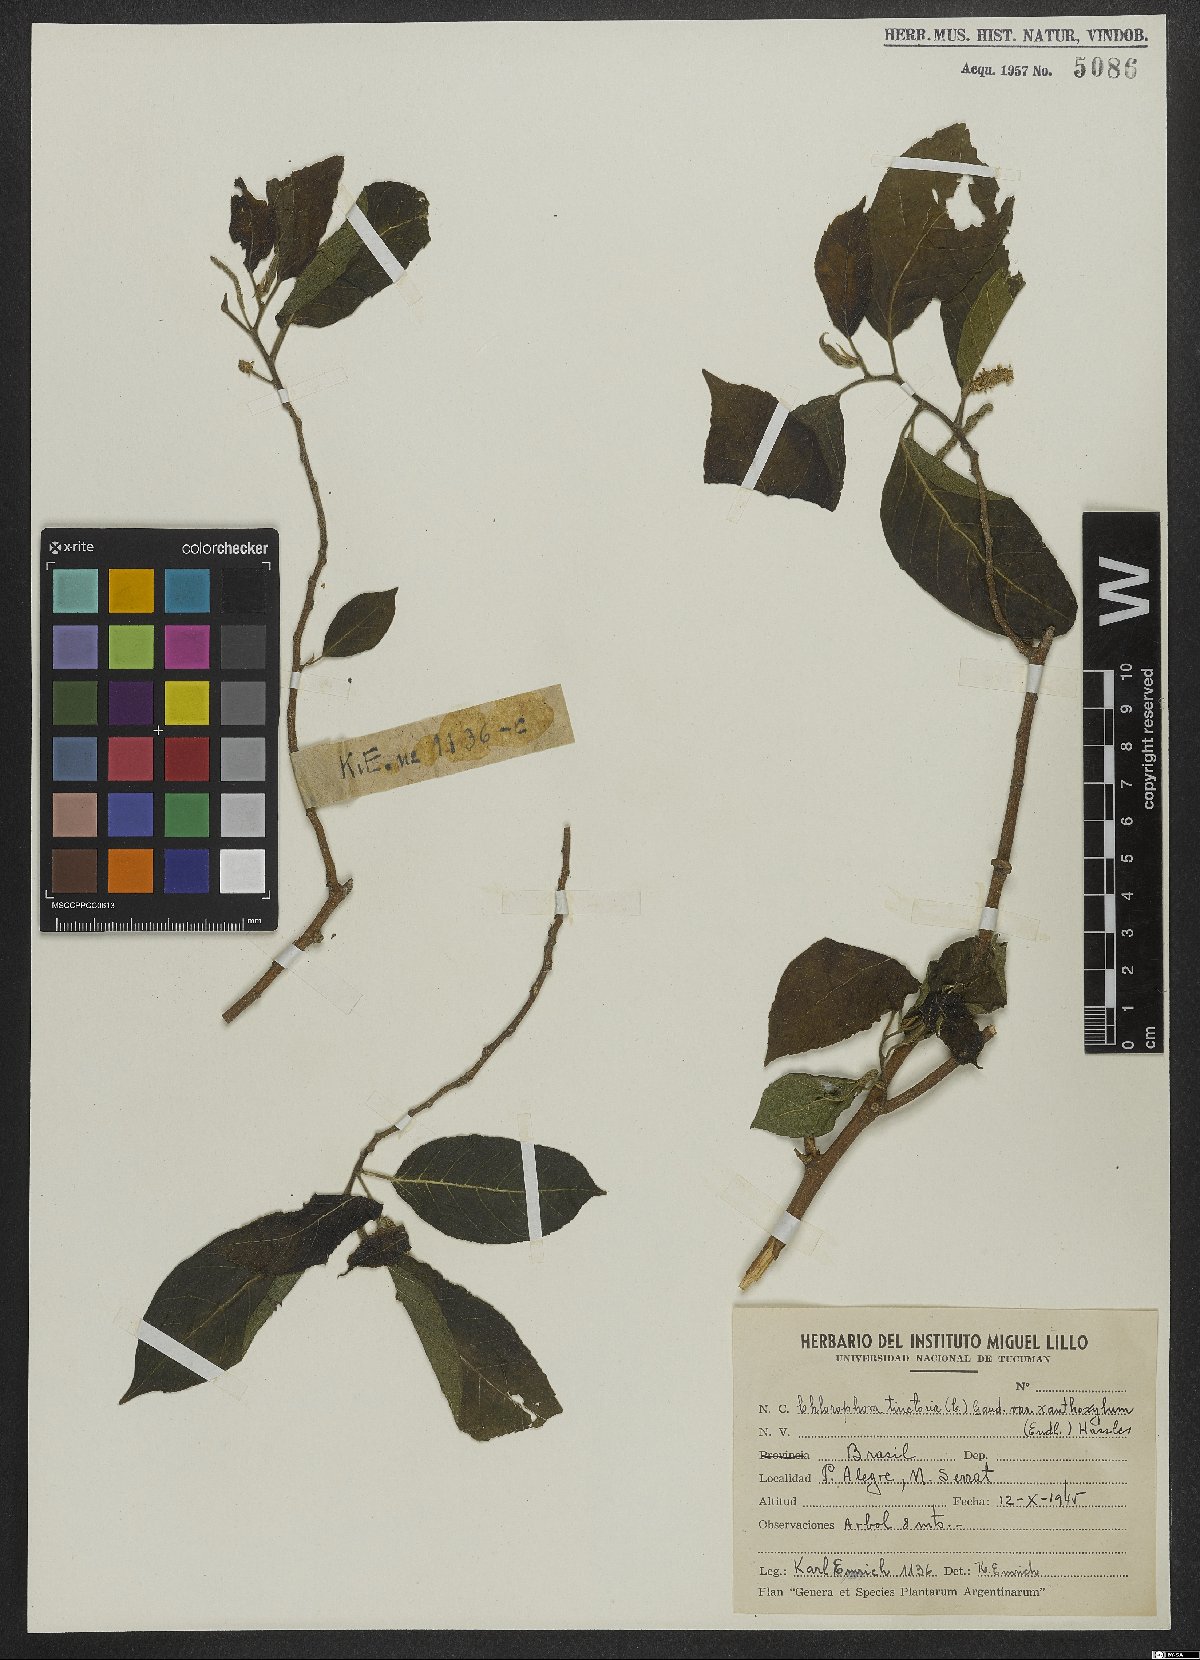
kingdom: Plantae
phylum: Tracheophyta
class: Magnoliopsida
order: Rosales
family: Moraceae
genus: Maclura
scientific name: Maclura tinctoria
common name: Old fustic
